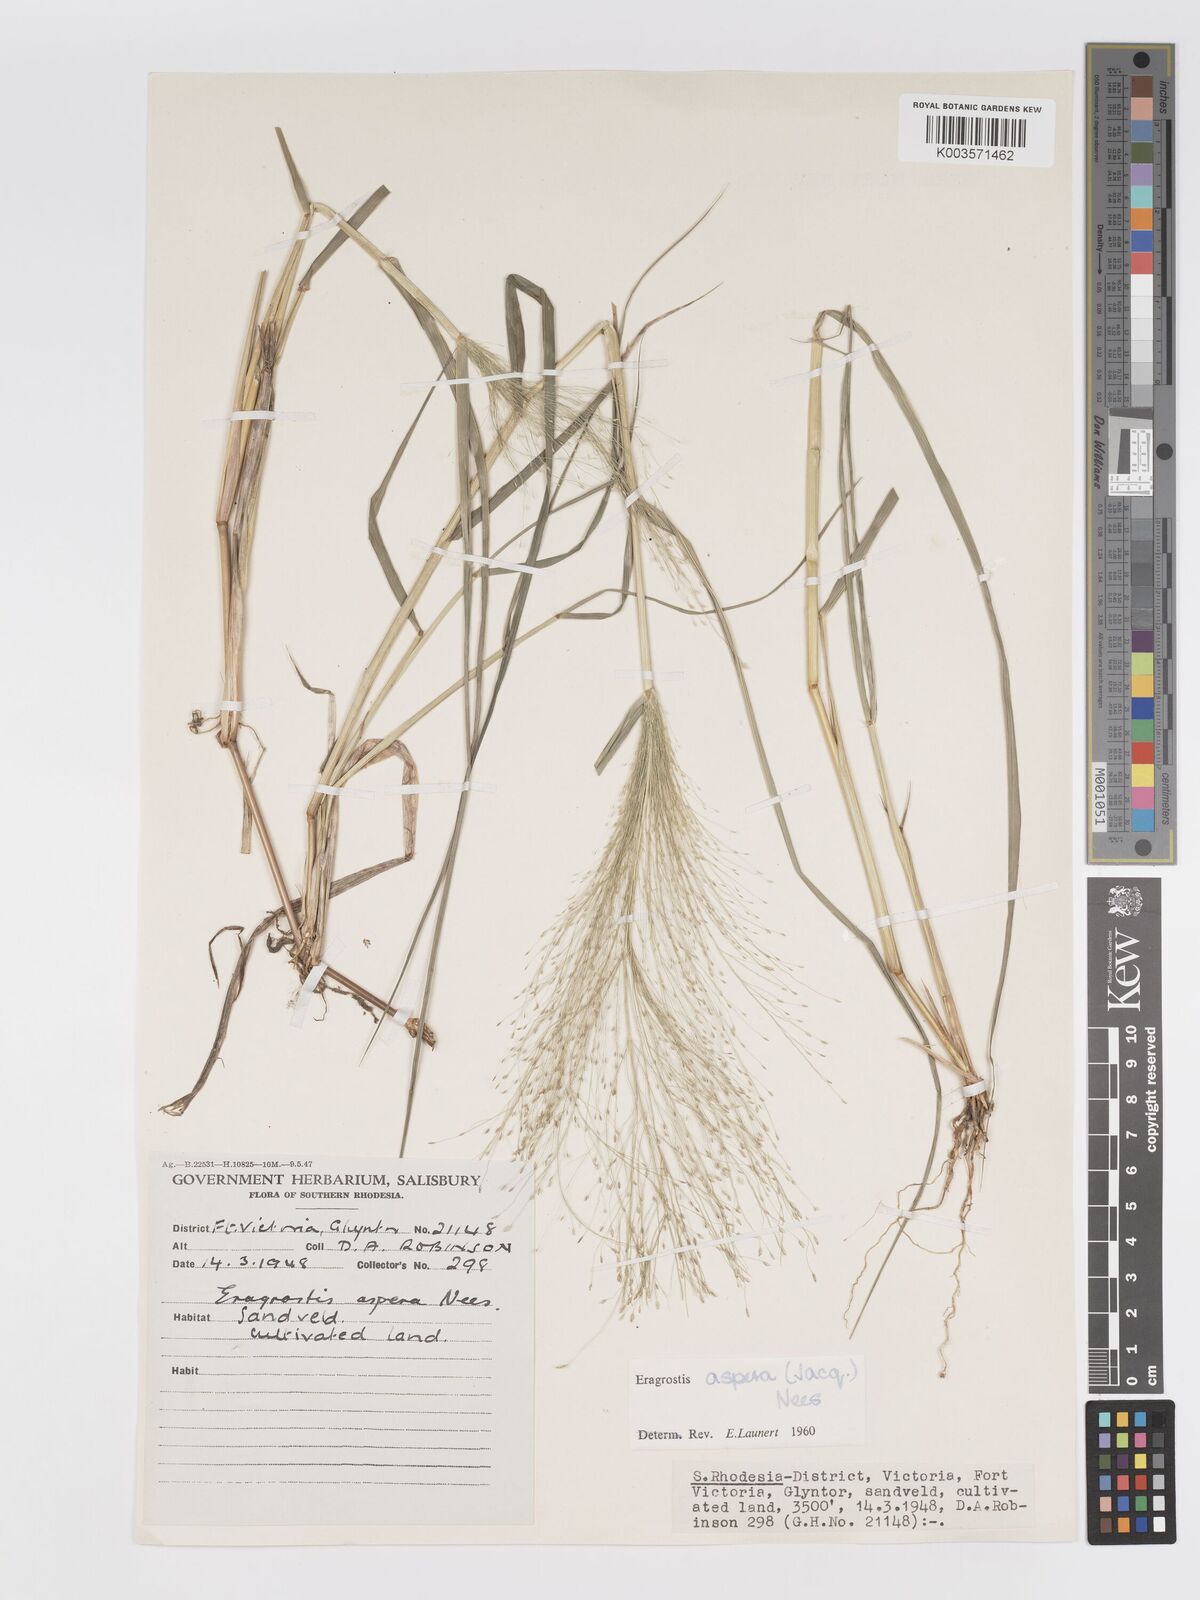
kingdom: Plantae
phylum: Tracheophyta
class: Liliopsida
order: Poales
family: Poaceae
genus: Eragrostis
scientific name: Eragrostis aspera
